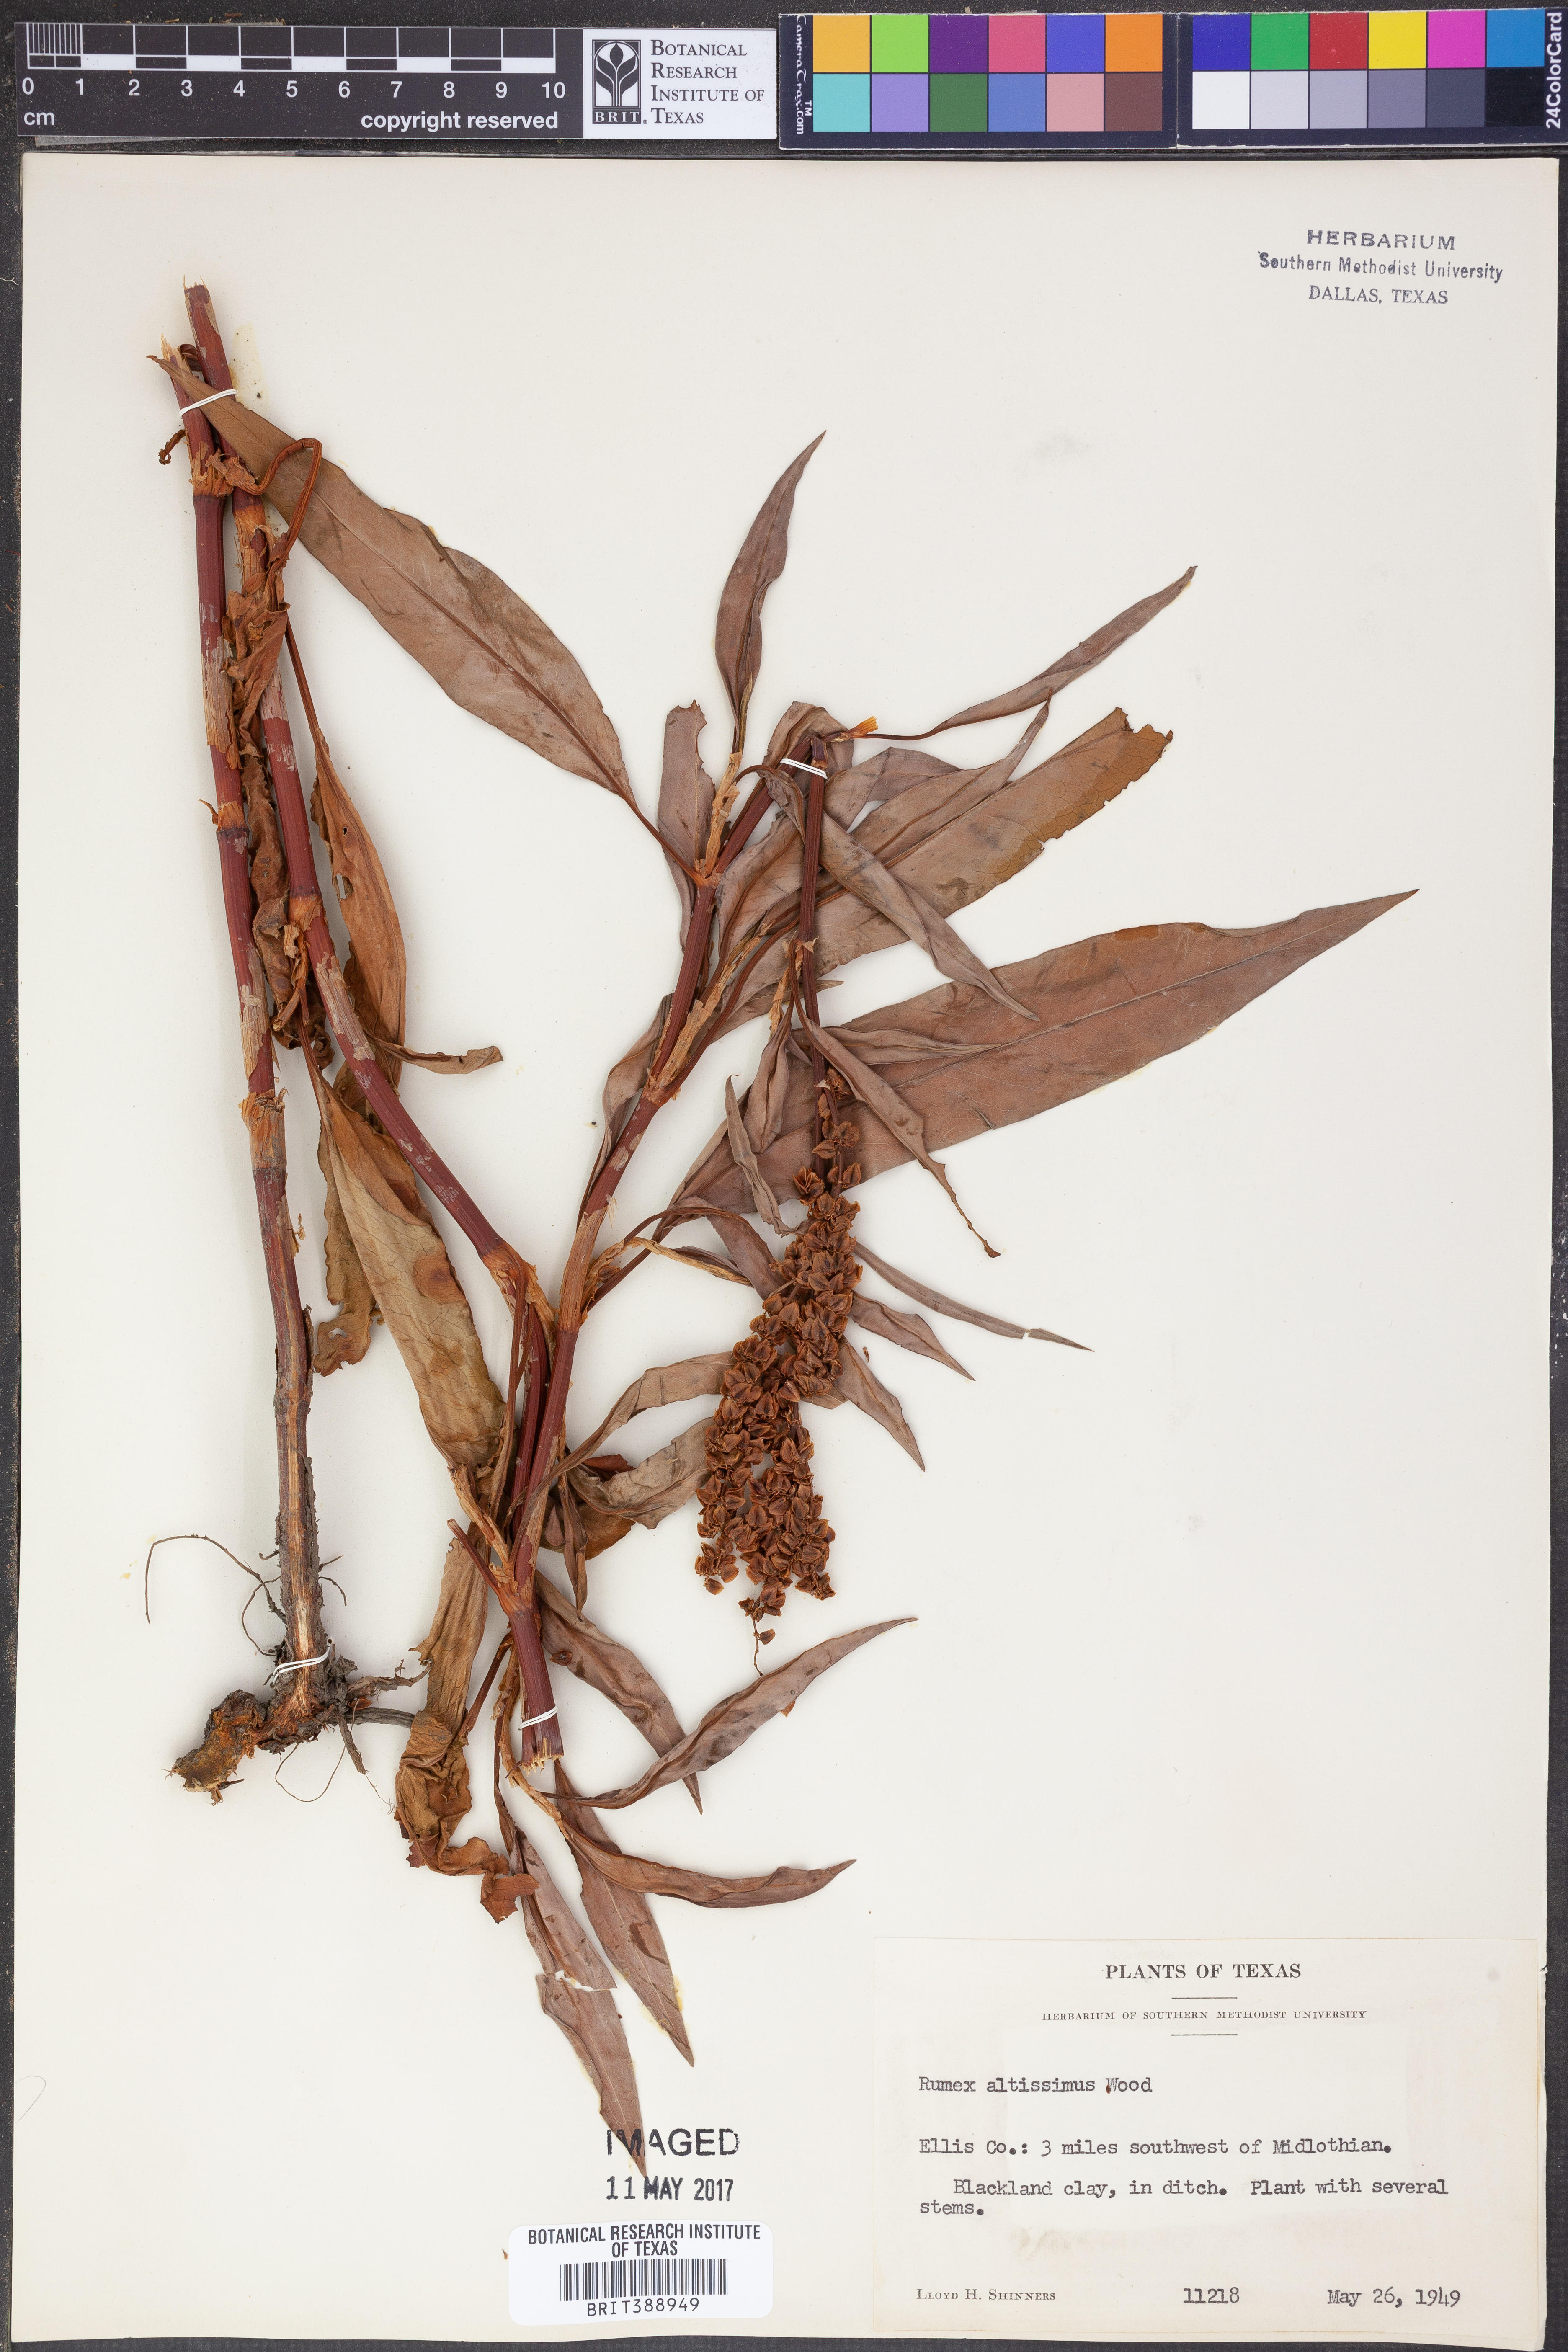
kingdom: Plantae
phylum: Tracheophyta
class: Magnoliopsida
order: Caryophyllales
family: Polygonaceae
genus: Rumex
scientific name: Rumex altissimus
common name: Smooth dock
